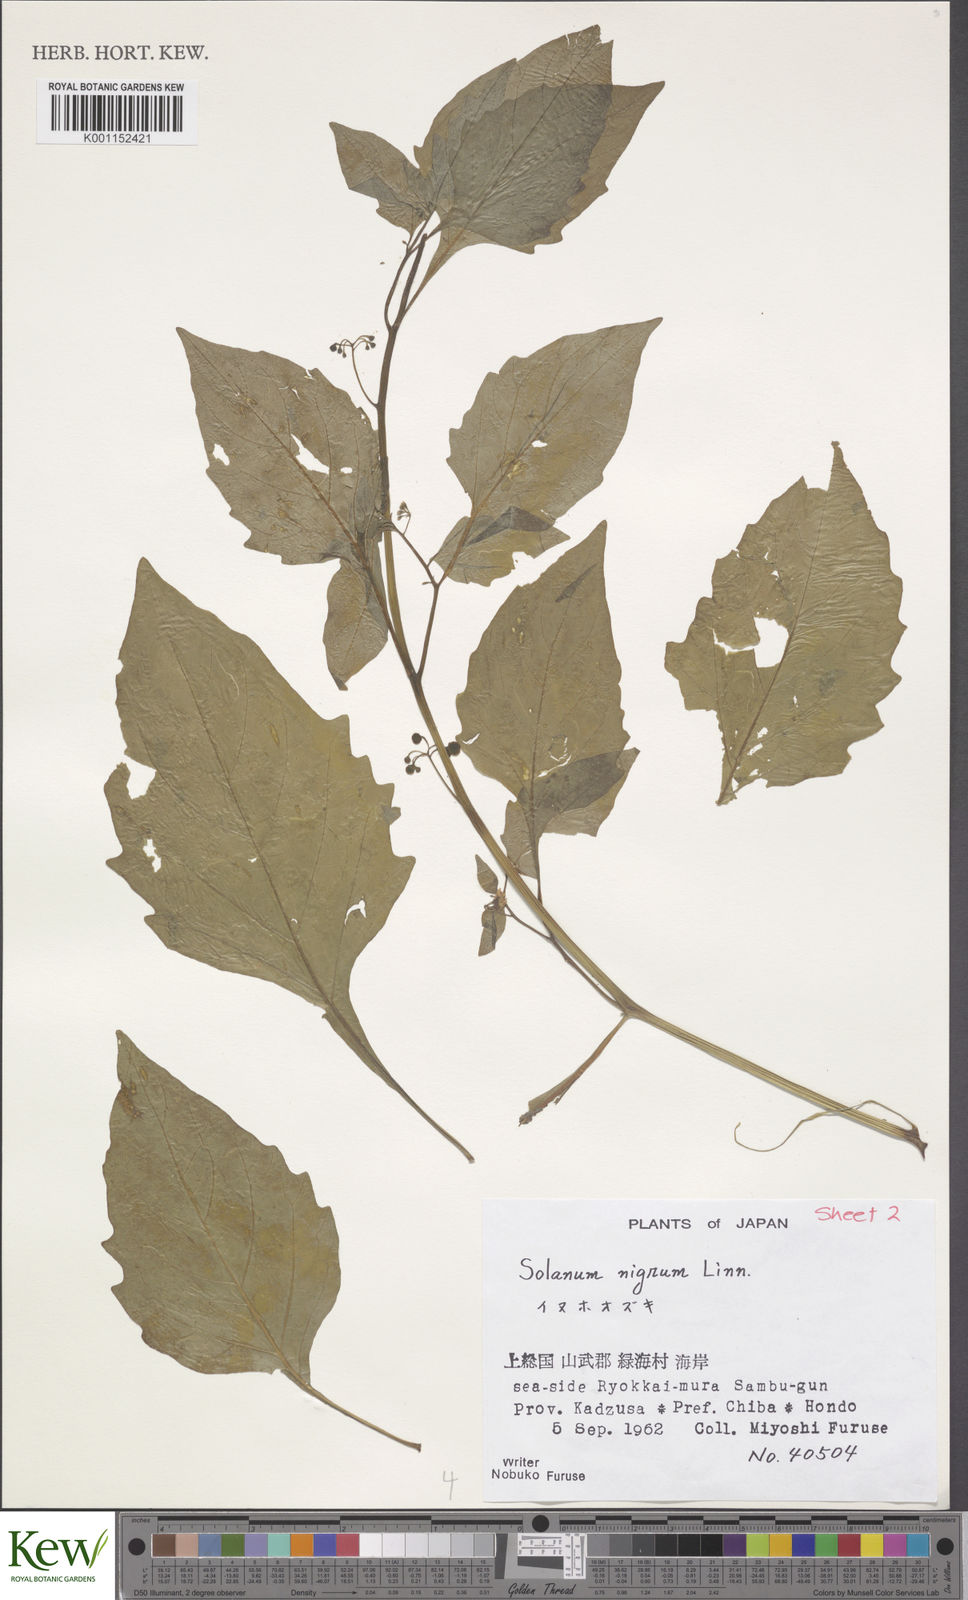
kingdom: Plantae
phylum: Tracheophyta
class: Magnoliopsida
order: Solanales
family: Solanaceae
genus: Solanum
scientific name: Solanum nigrum
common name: Black nightshade
